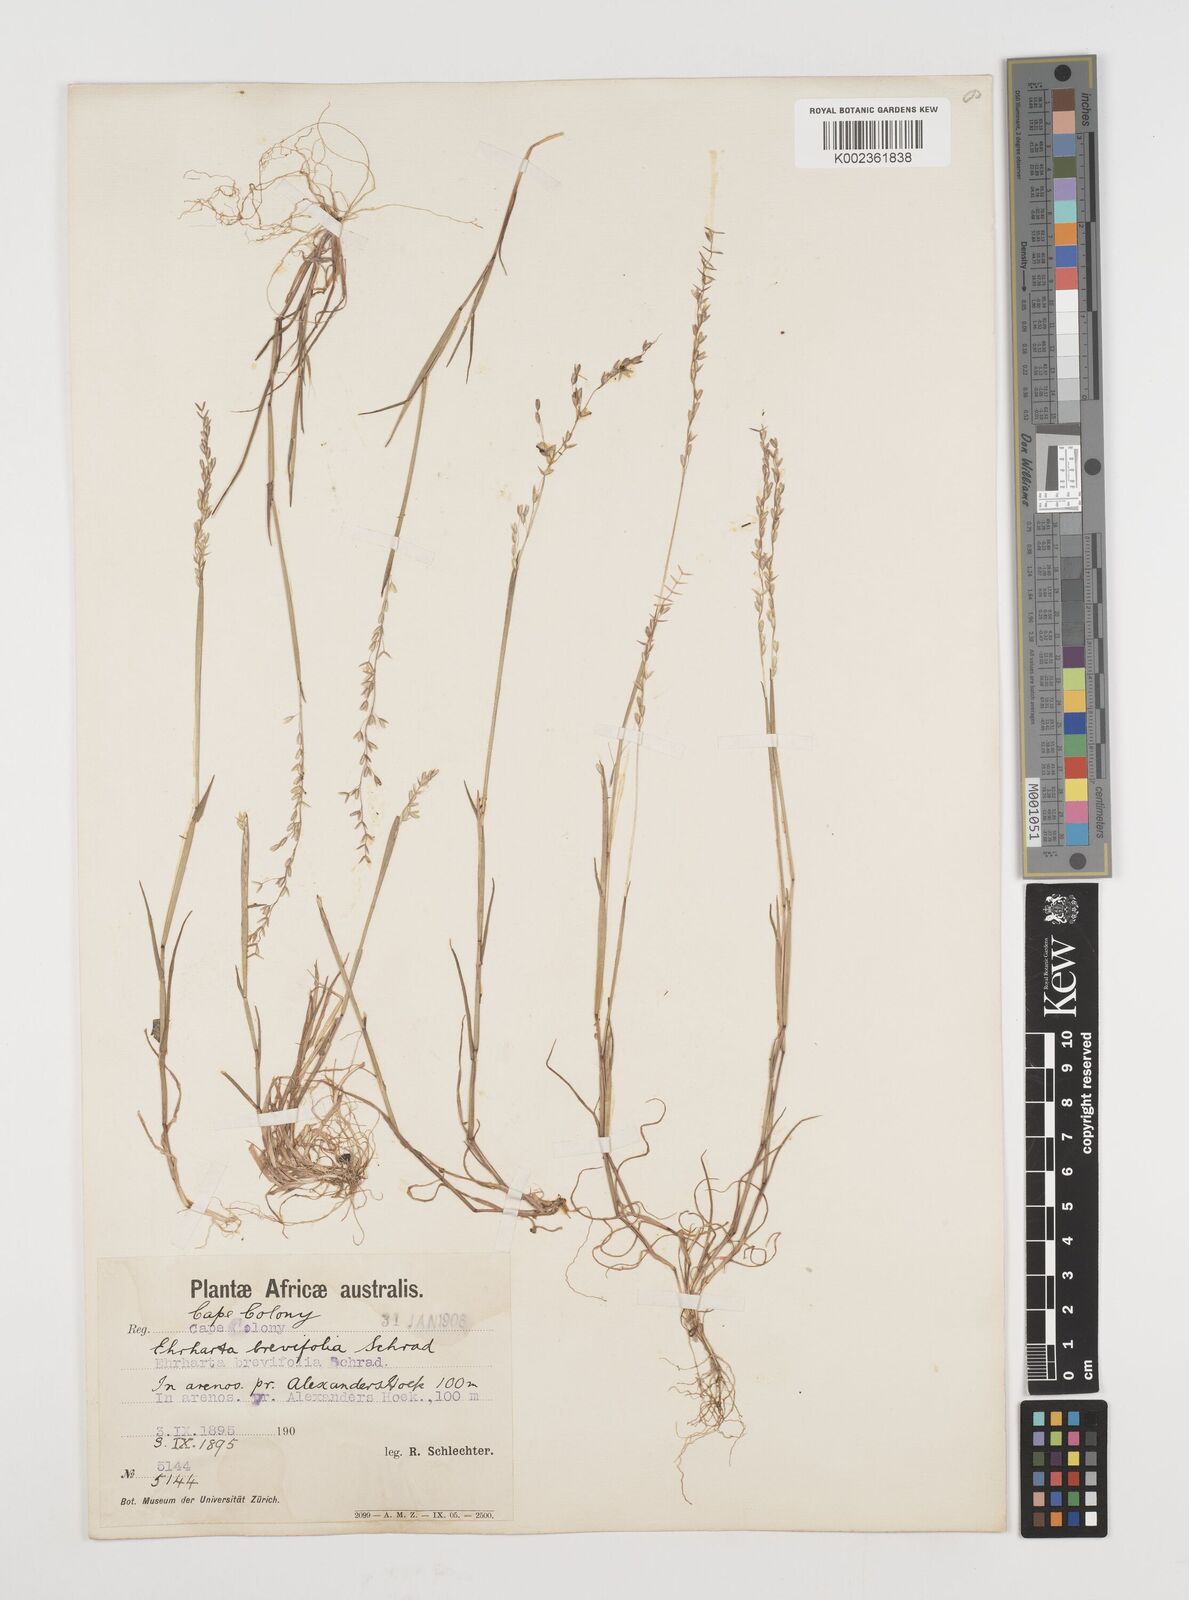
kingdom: Plantae
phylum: Tracheophyta
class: Liliopsida
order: Poales
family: Poaceae
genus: Ehrharta
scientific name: Ehrharta brevifolia
